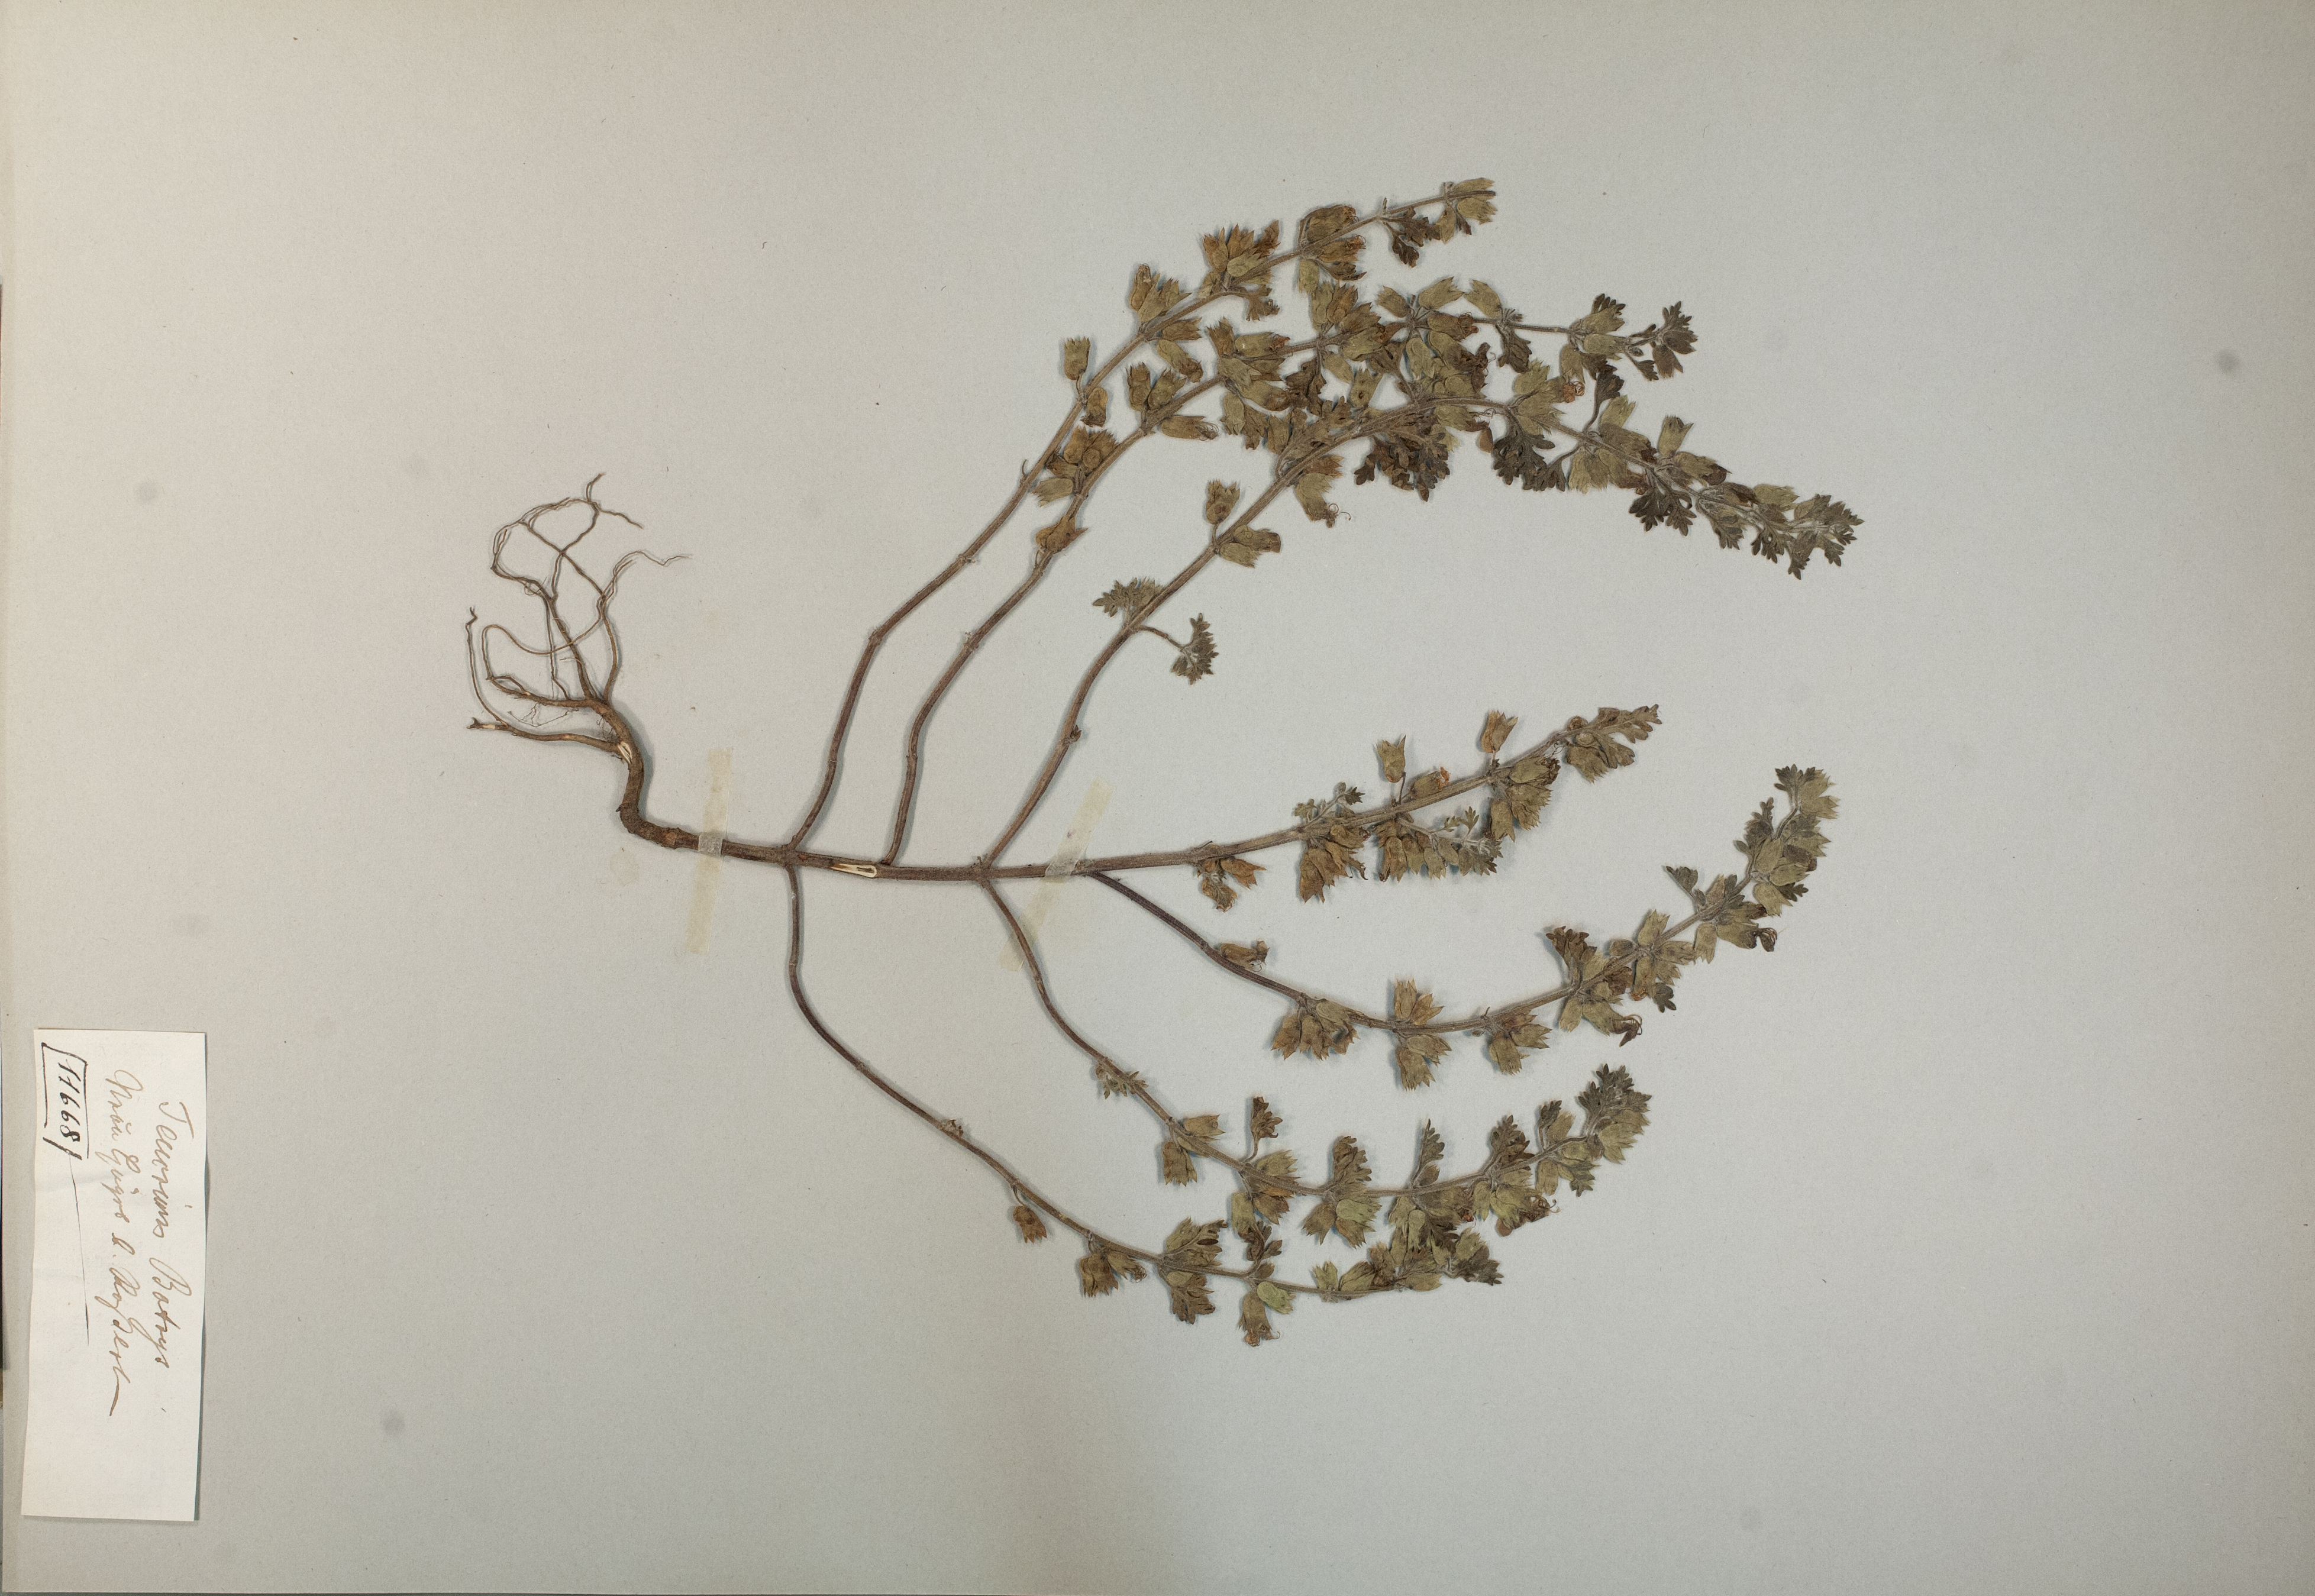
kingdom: Plantae
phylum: Tracheophyta
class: Magnoliopsida
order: Lamiales
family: Lamiaceae
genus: Teucrium
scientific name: Teucrium botrys
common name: Cut-leaved germander
